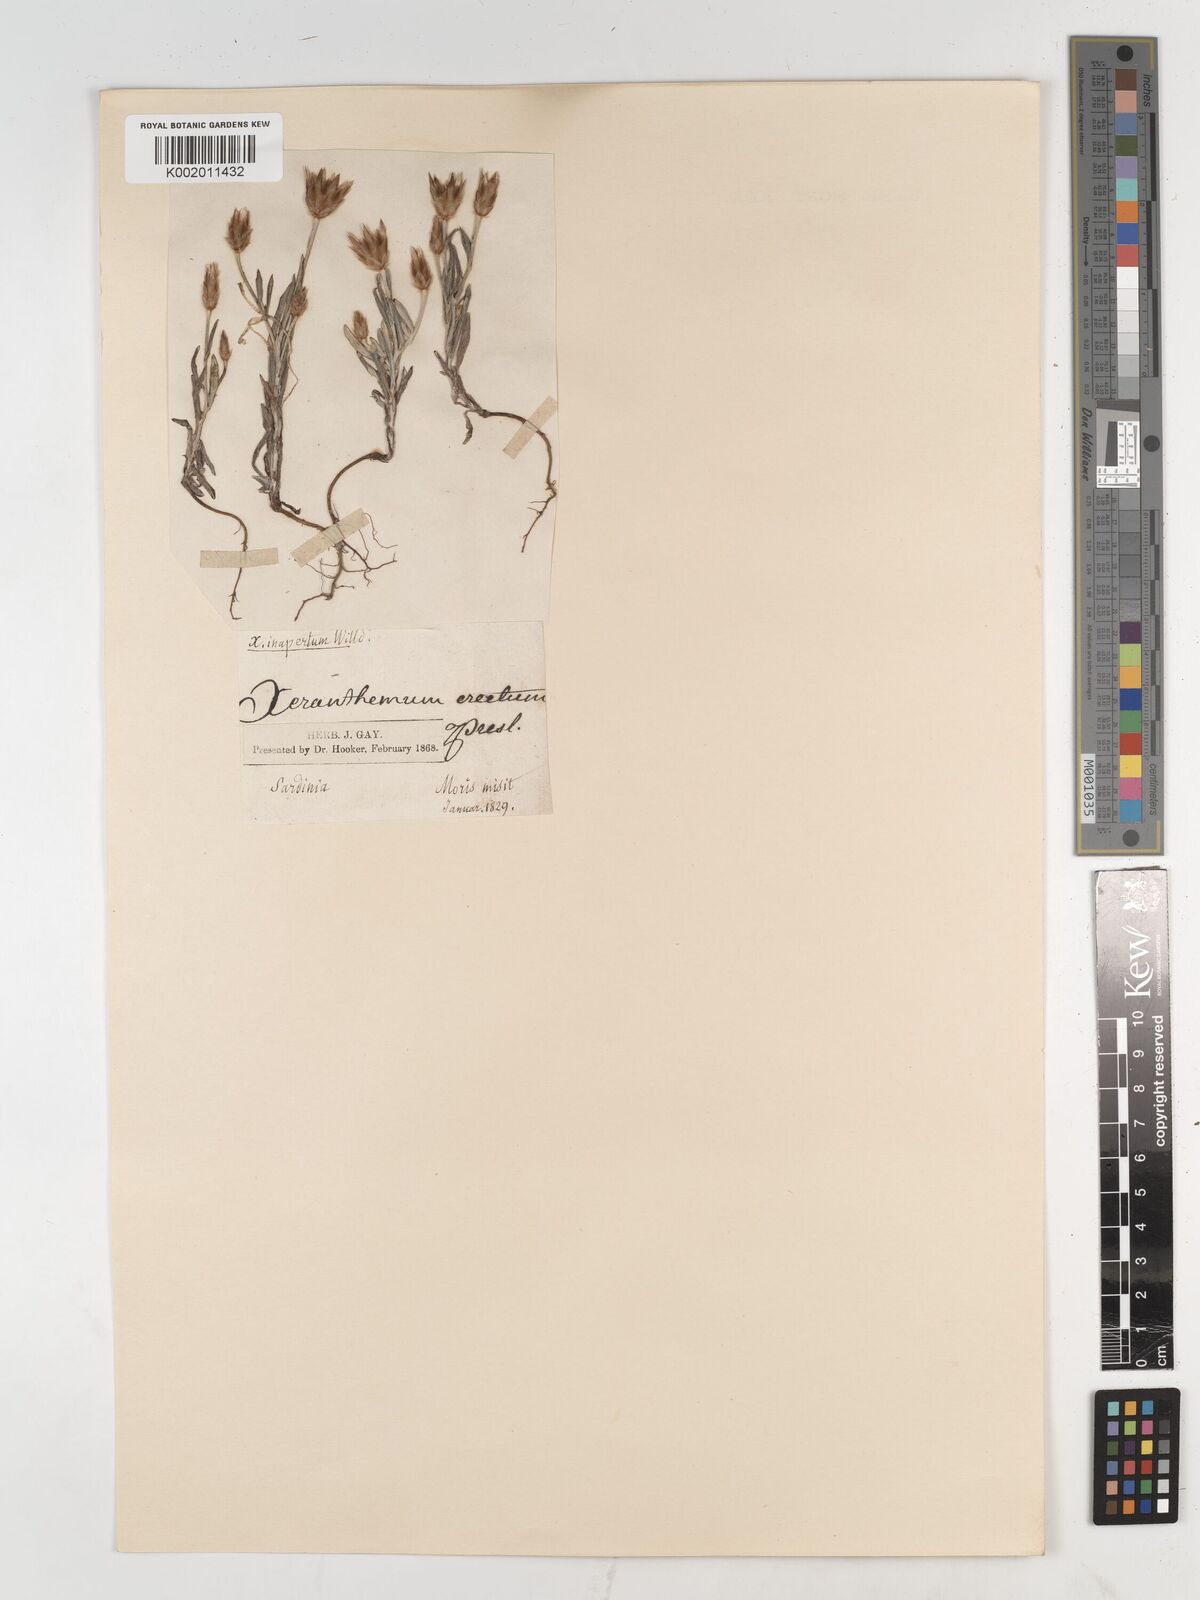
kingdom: Plantae
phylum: Tracheophyta
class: Magnoliopsida
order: Asterales
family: Asteraceae
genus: Xeranthemum
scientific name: Xeranthemum inapertum
